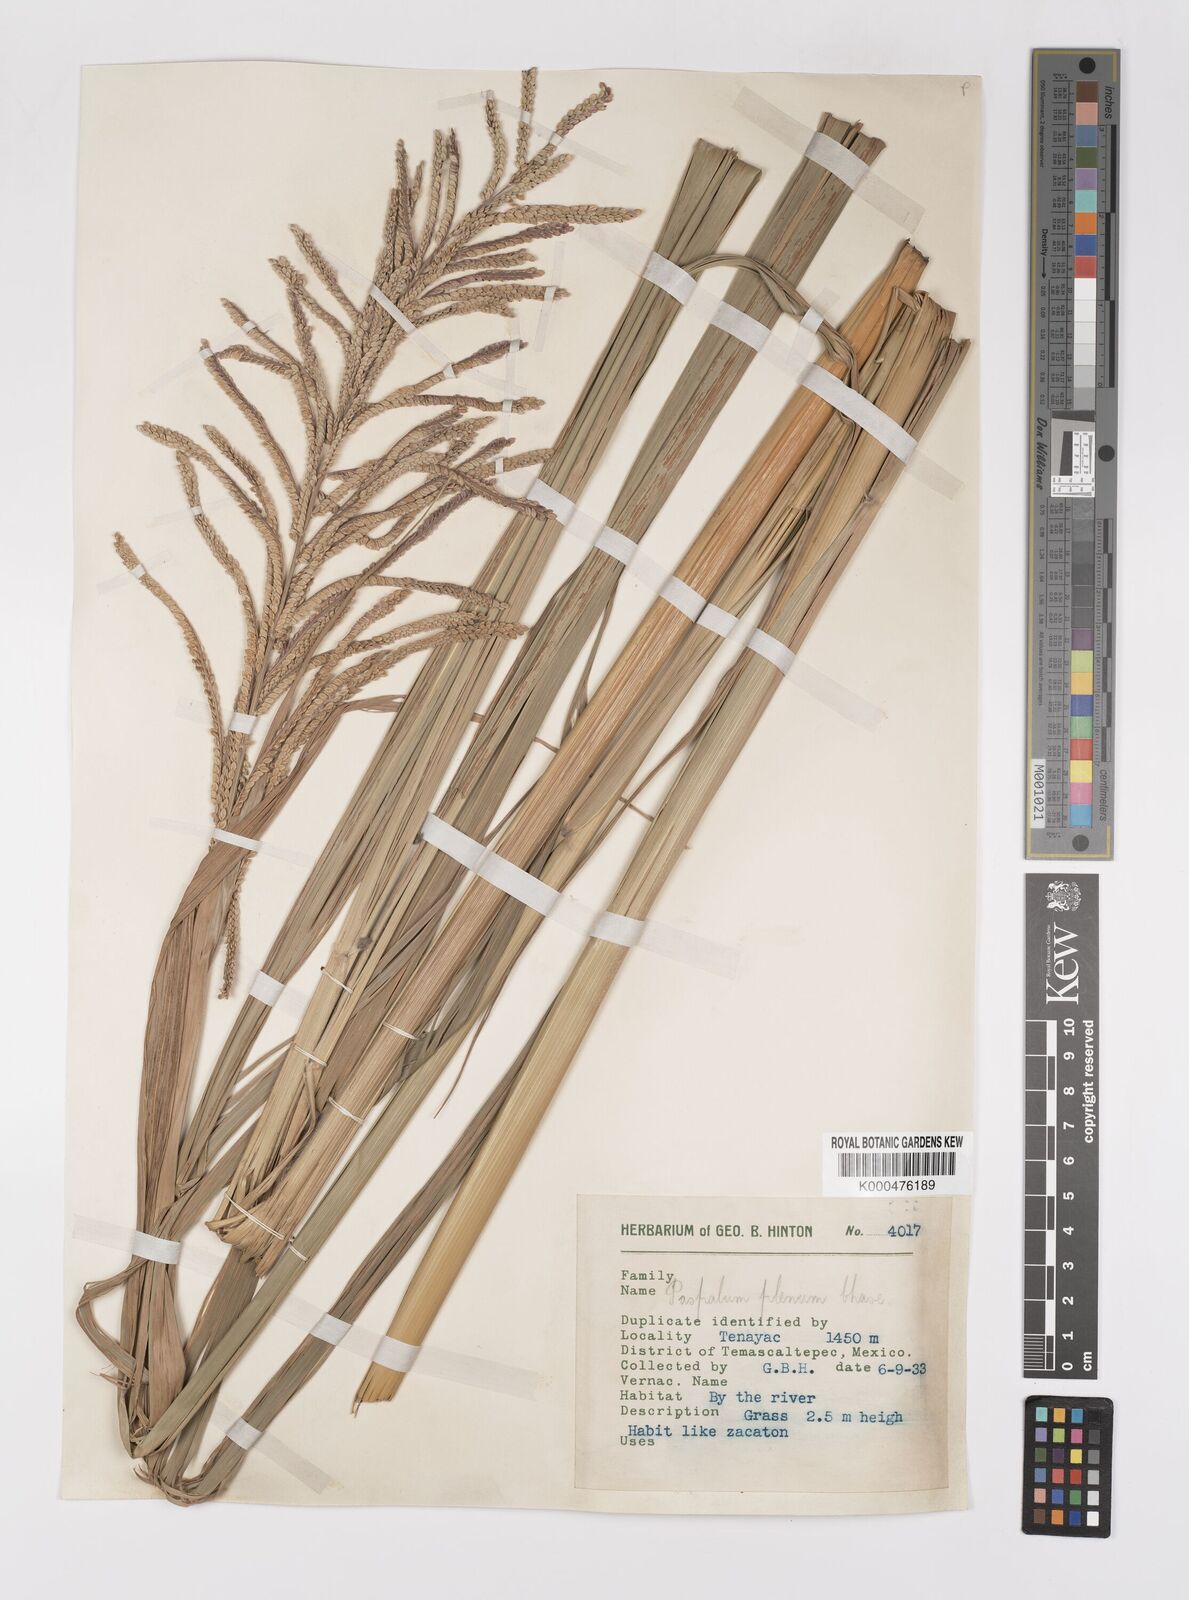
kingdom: Plantae
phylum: Tracheophyta
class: Liliopsida
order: Poales
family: Poaceae
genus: Paspalum
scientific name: Paspalum plenum
